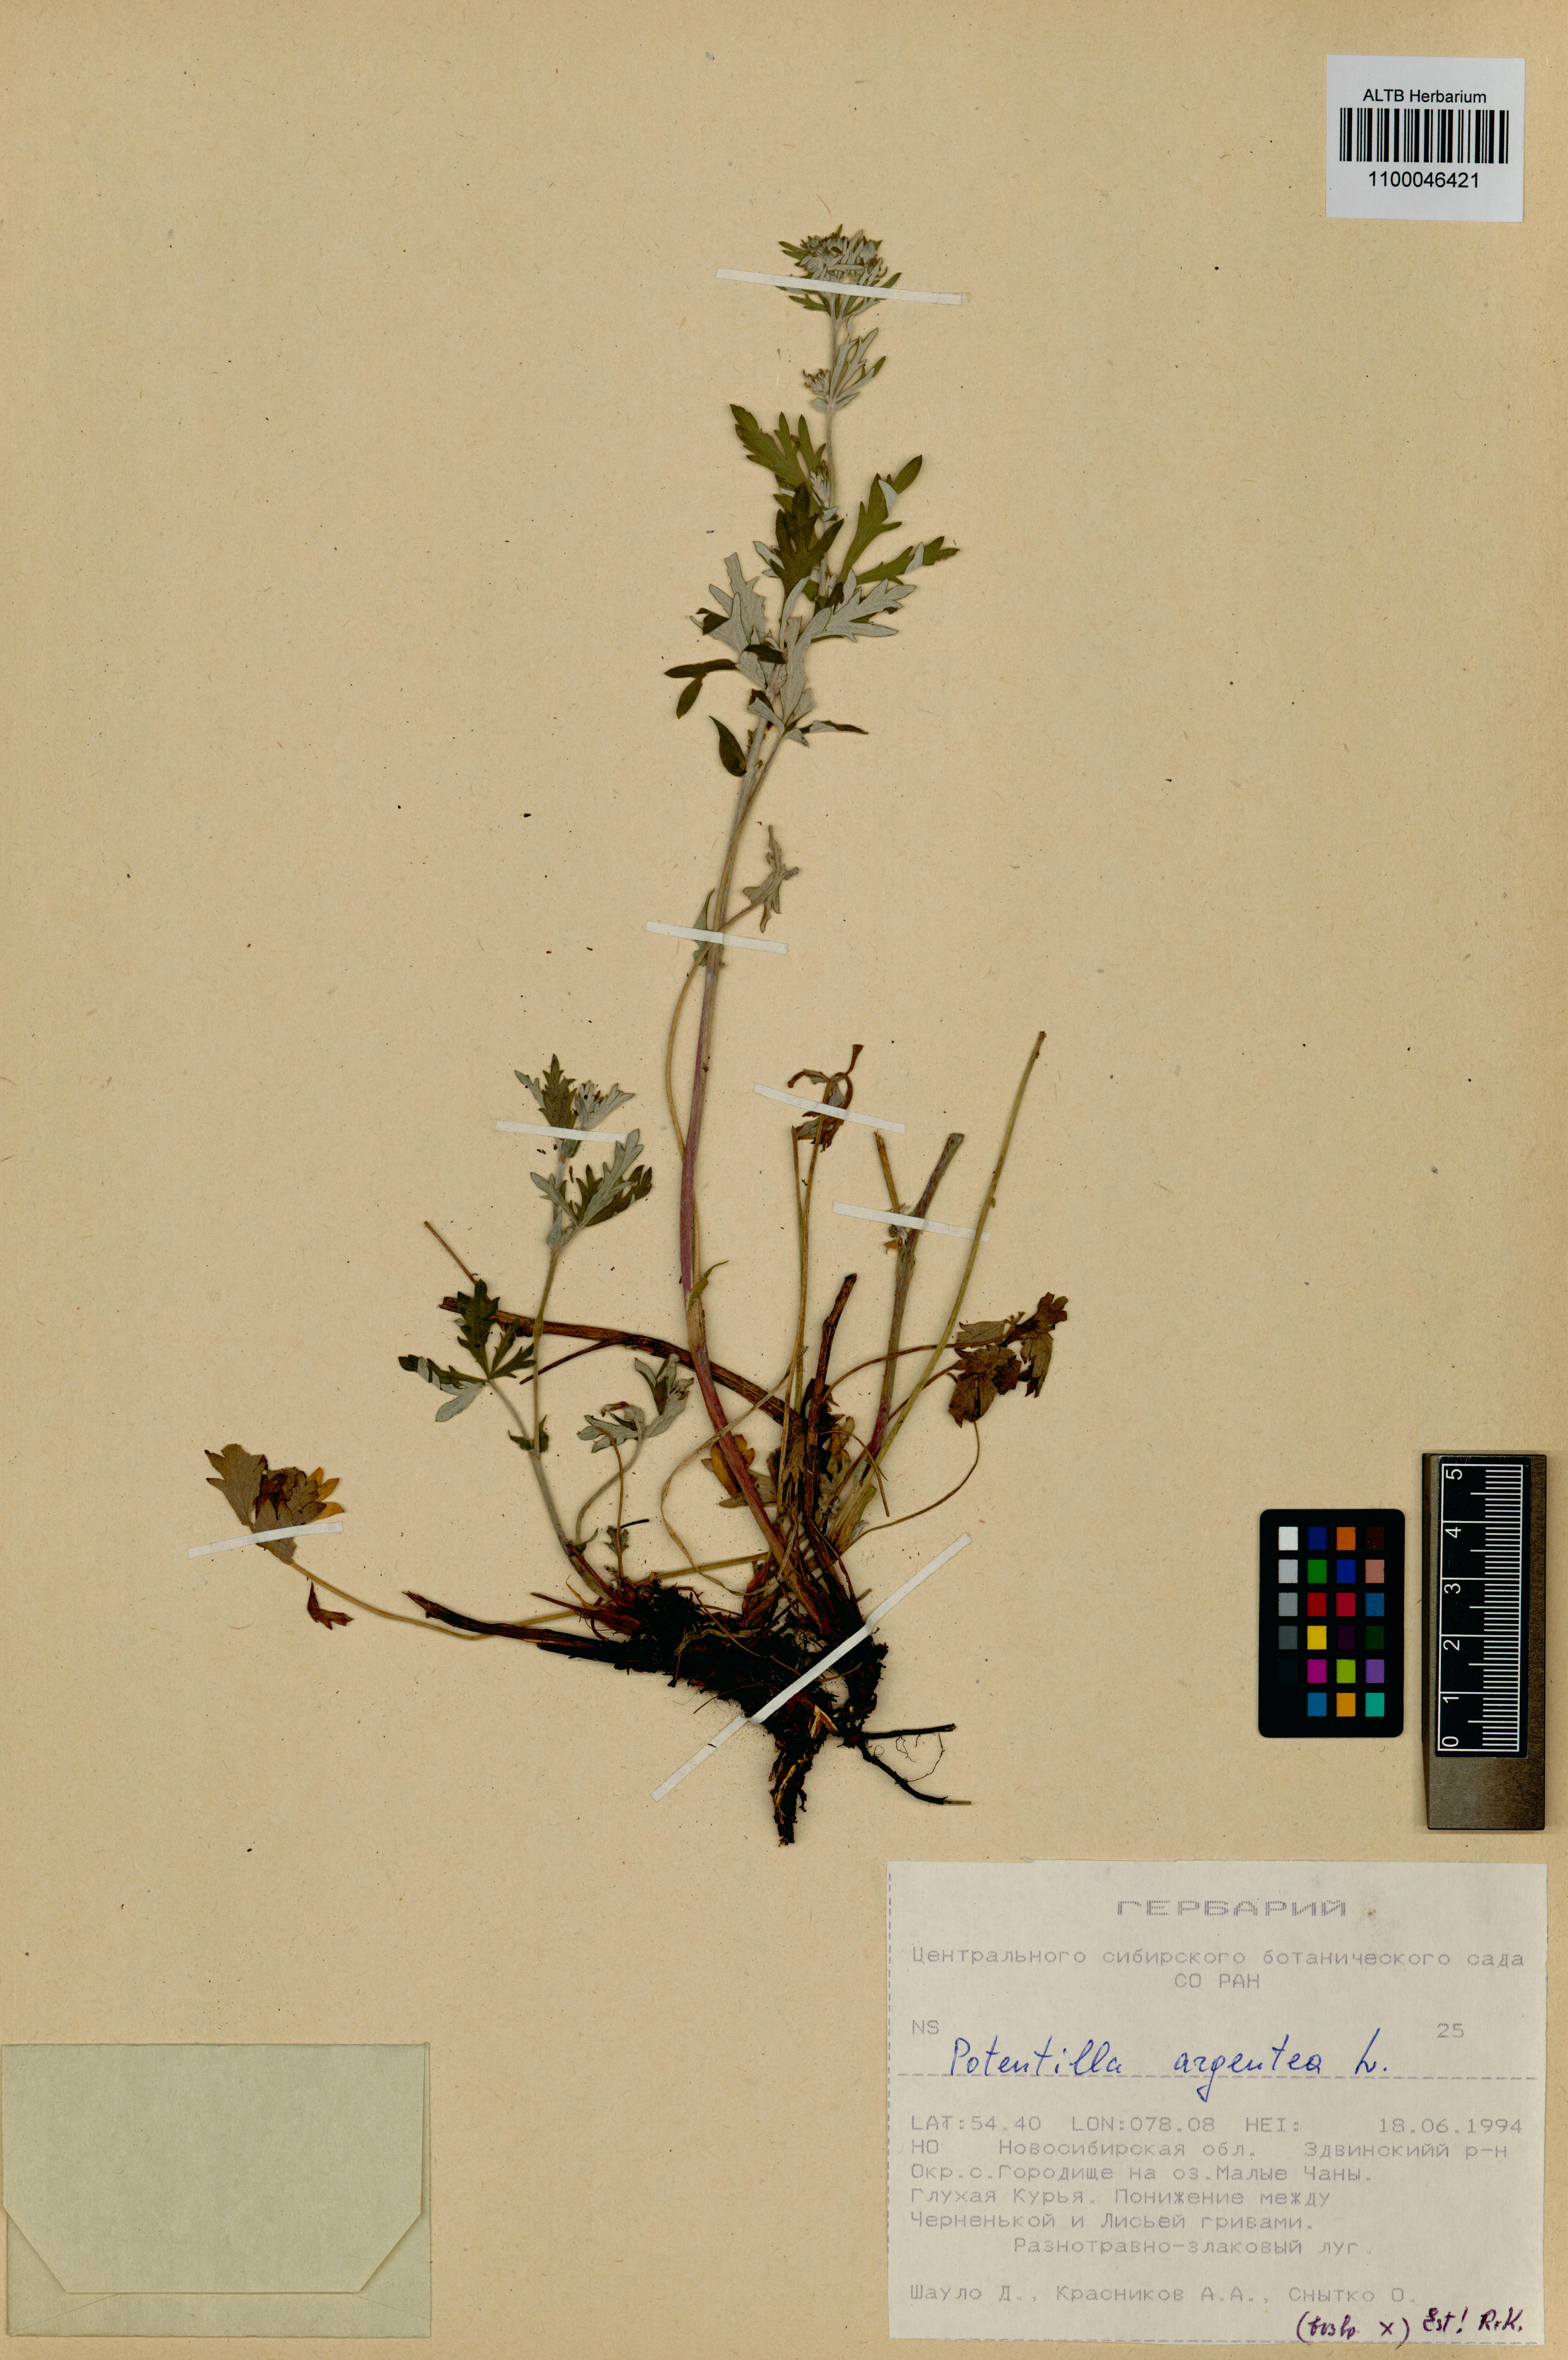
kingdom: Plantae
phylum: Tracheophyta
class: Magnoliopsida
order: Rosales
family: Rosaceae
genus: Potentilla
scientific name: Potentilla argentea
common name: Hoary cinquefoil
